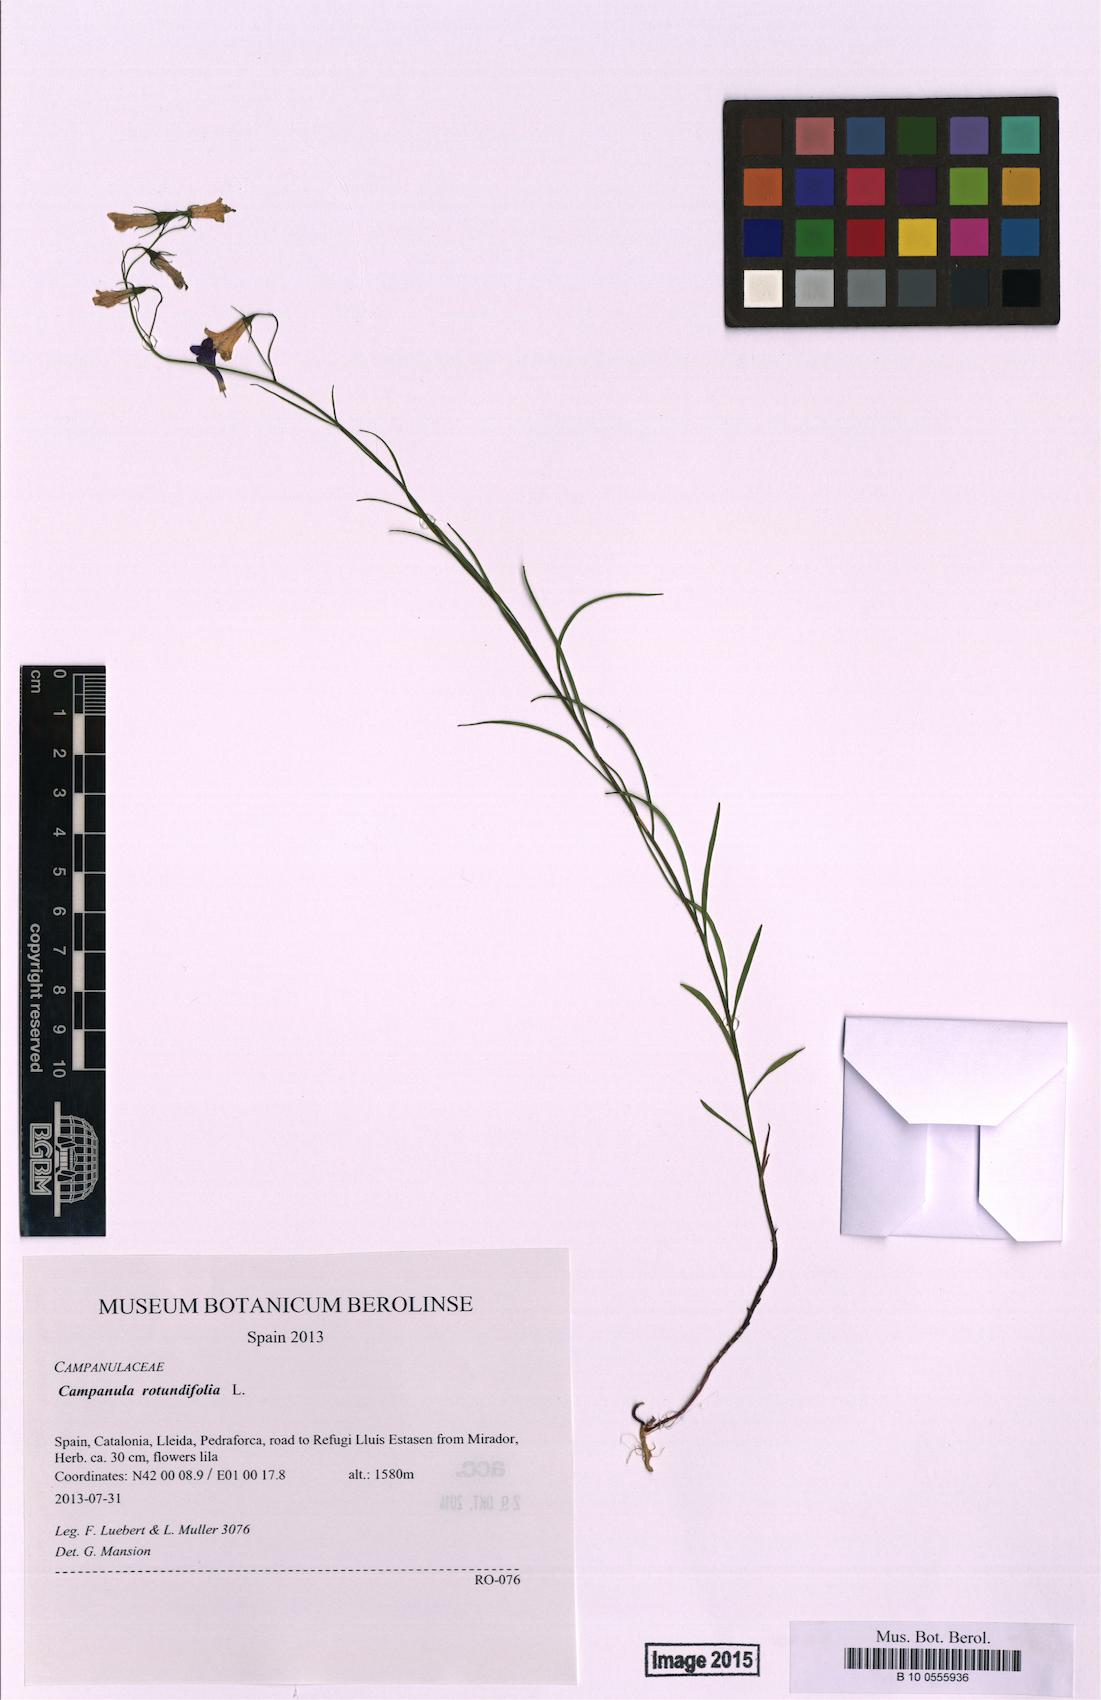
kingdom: Plantae
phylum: Tracheophyta
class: Magnoliopsida
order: Asterales
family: Campanulaceae
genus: Campanula
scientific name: Campanula rotundifolia
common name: Harebell
